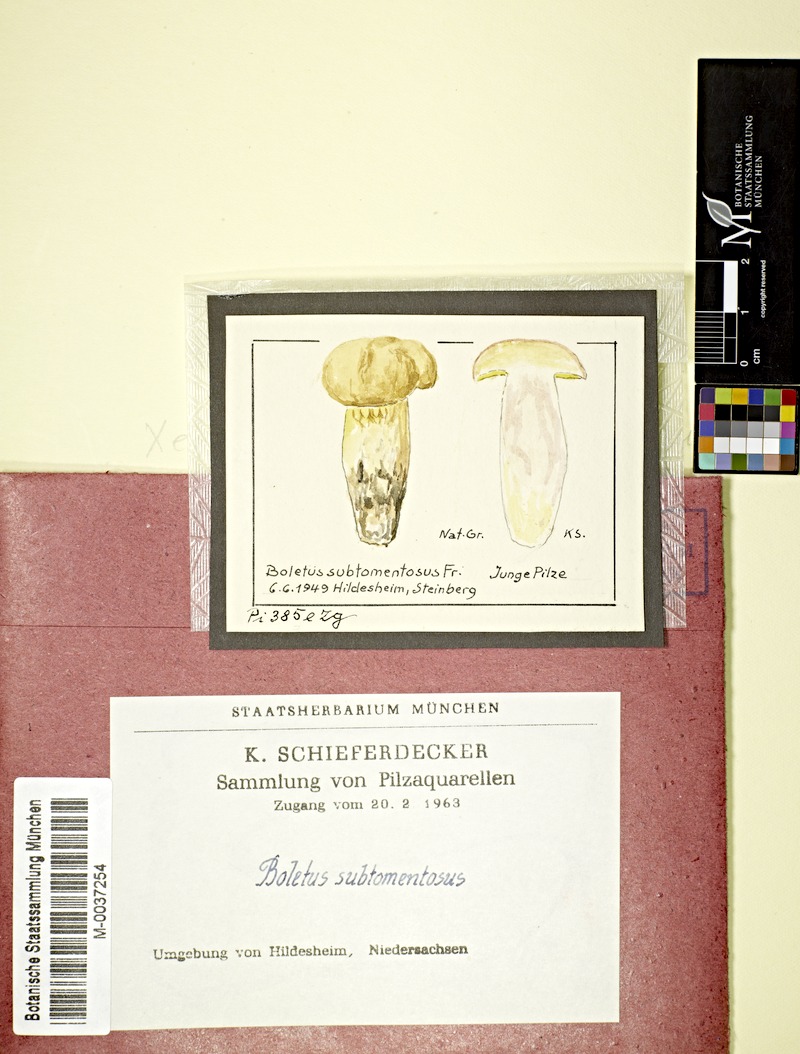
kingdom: Fungi
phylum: Basidiomycota
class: Agaricomycetes
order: Boletales
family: Boletaceae
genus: Xerocomus
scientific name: Xerocomus subtomentosus
